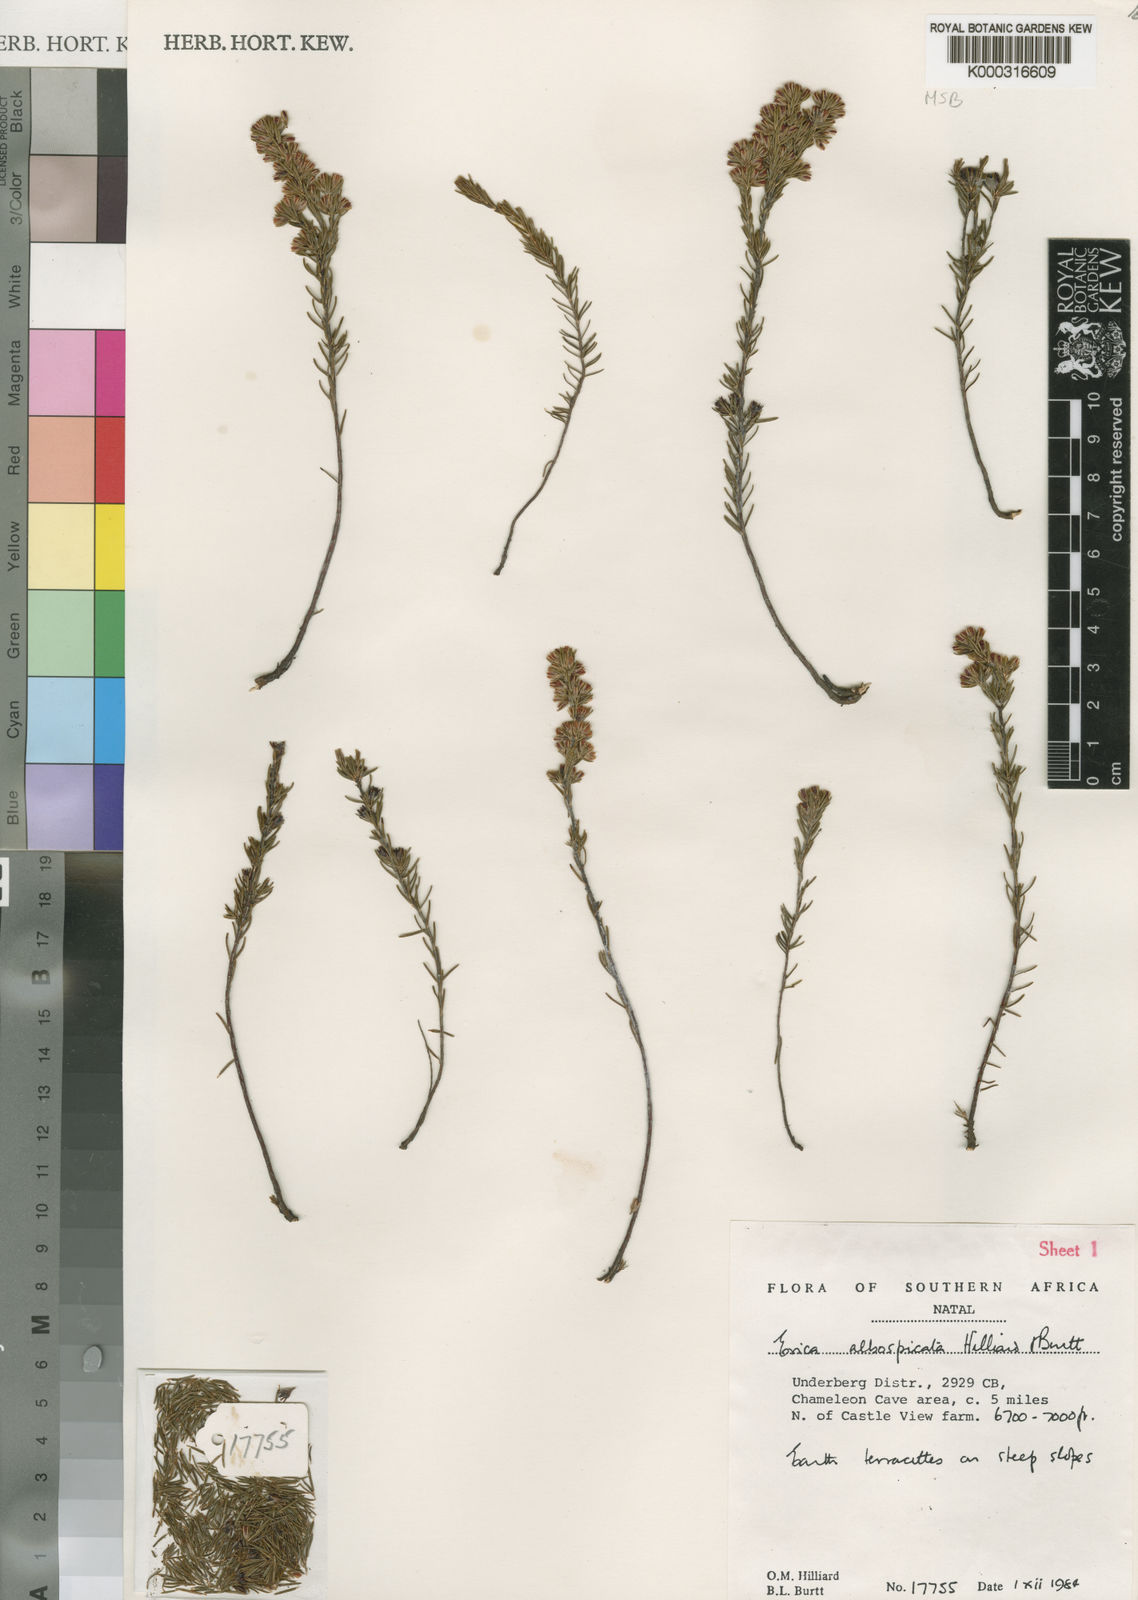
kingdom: Plantae
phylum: Tracheophyta
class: Magnoliopsida
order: Ericales
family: Ericaceae
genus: Erica
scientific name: Erica albospicata
